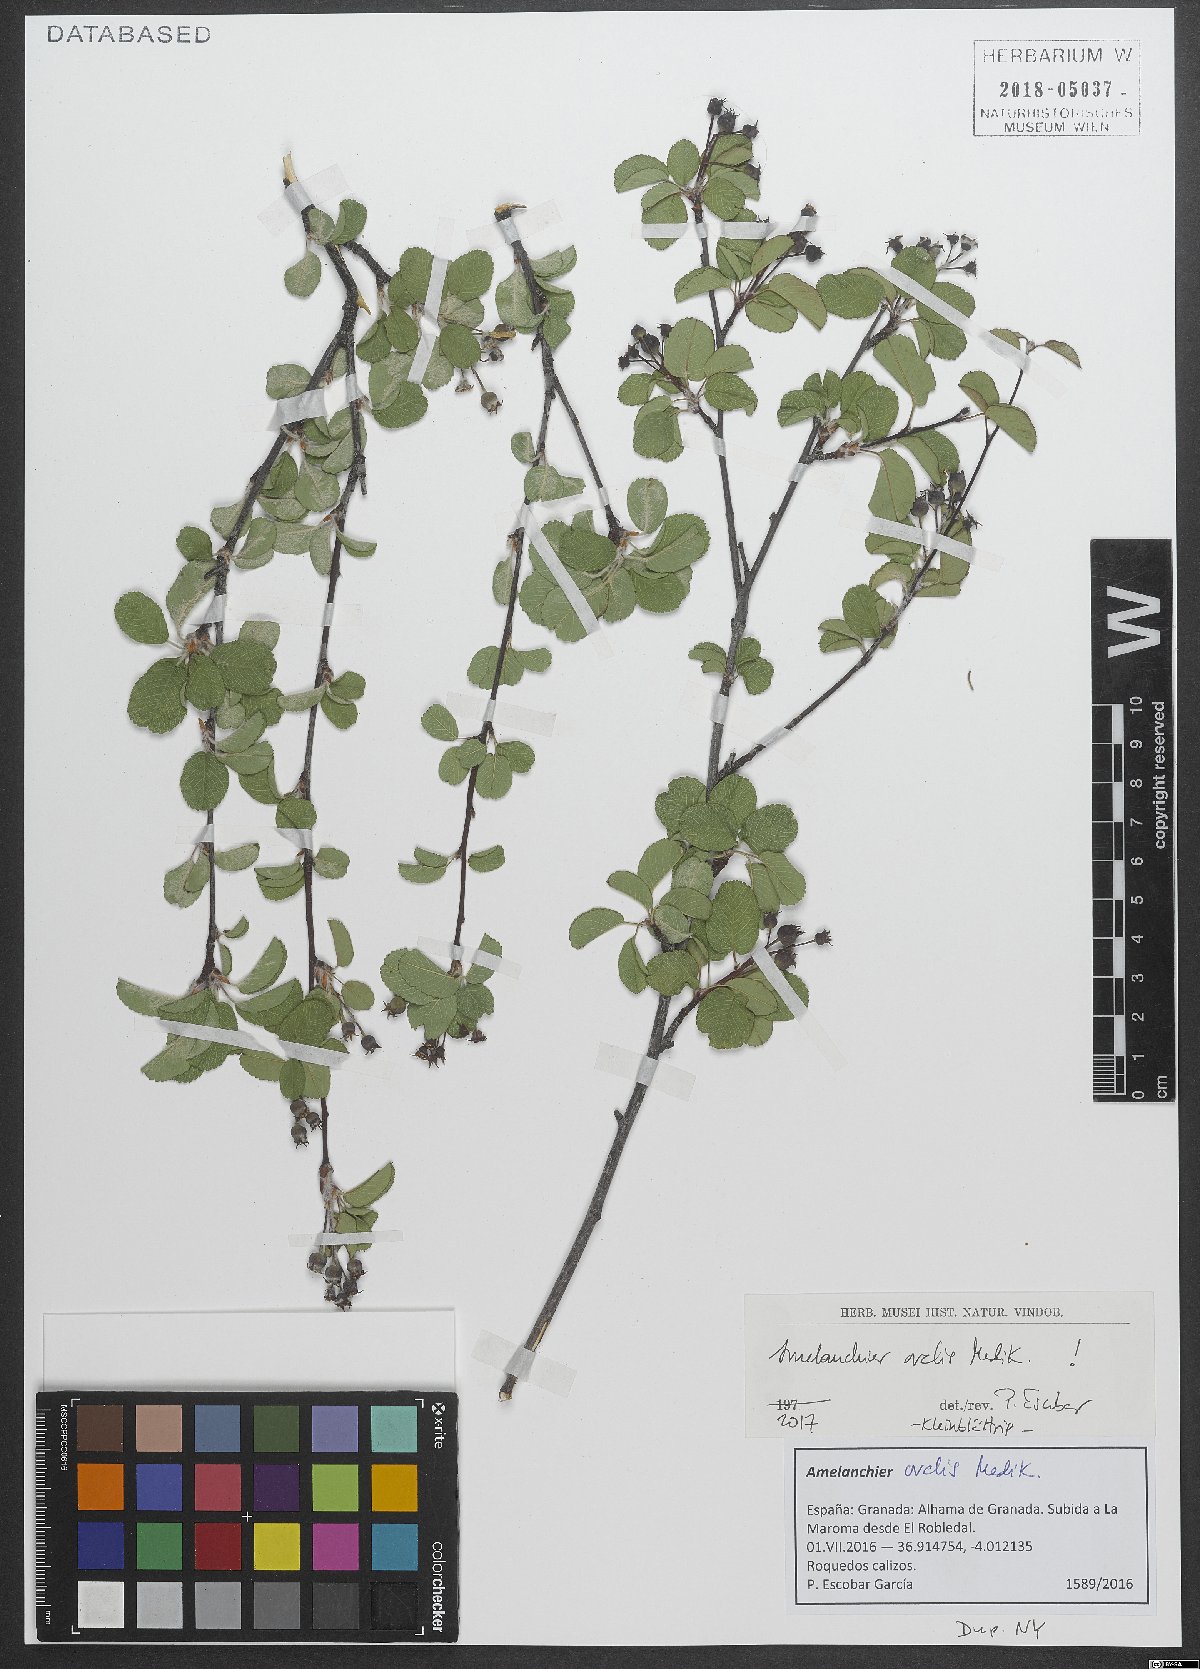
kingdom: Plantae
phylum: Tracheophyta
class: Magnoliopsida
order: Rosales
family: Rosaceae
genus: Amelanchier
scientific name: Amelanchier ovalis
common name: Serviceberry
